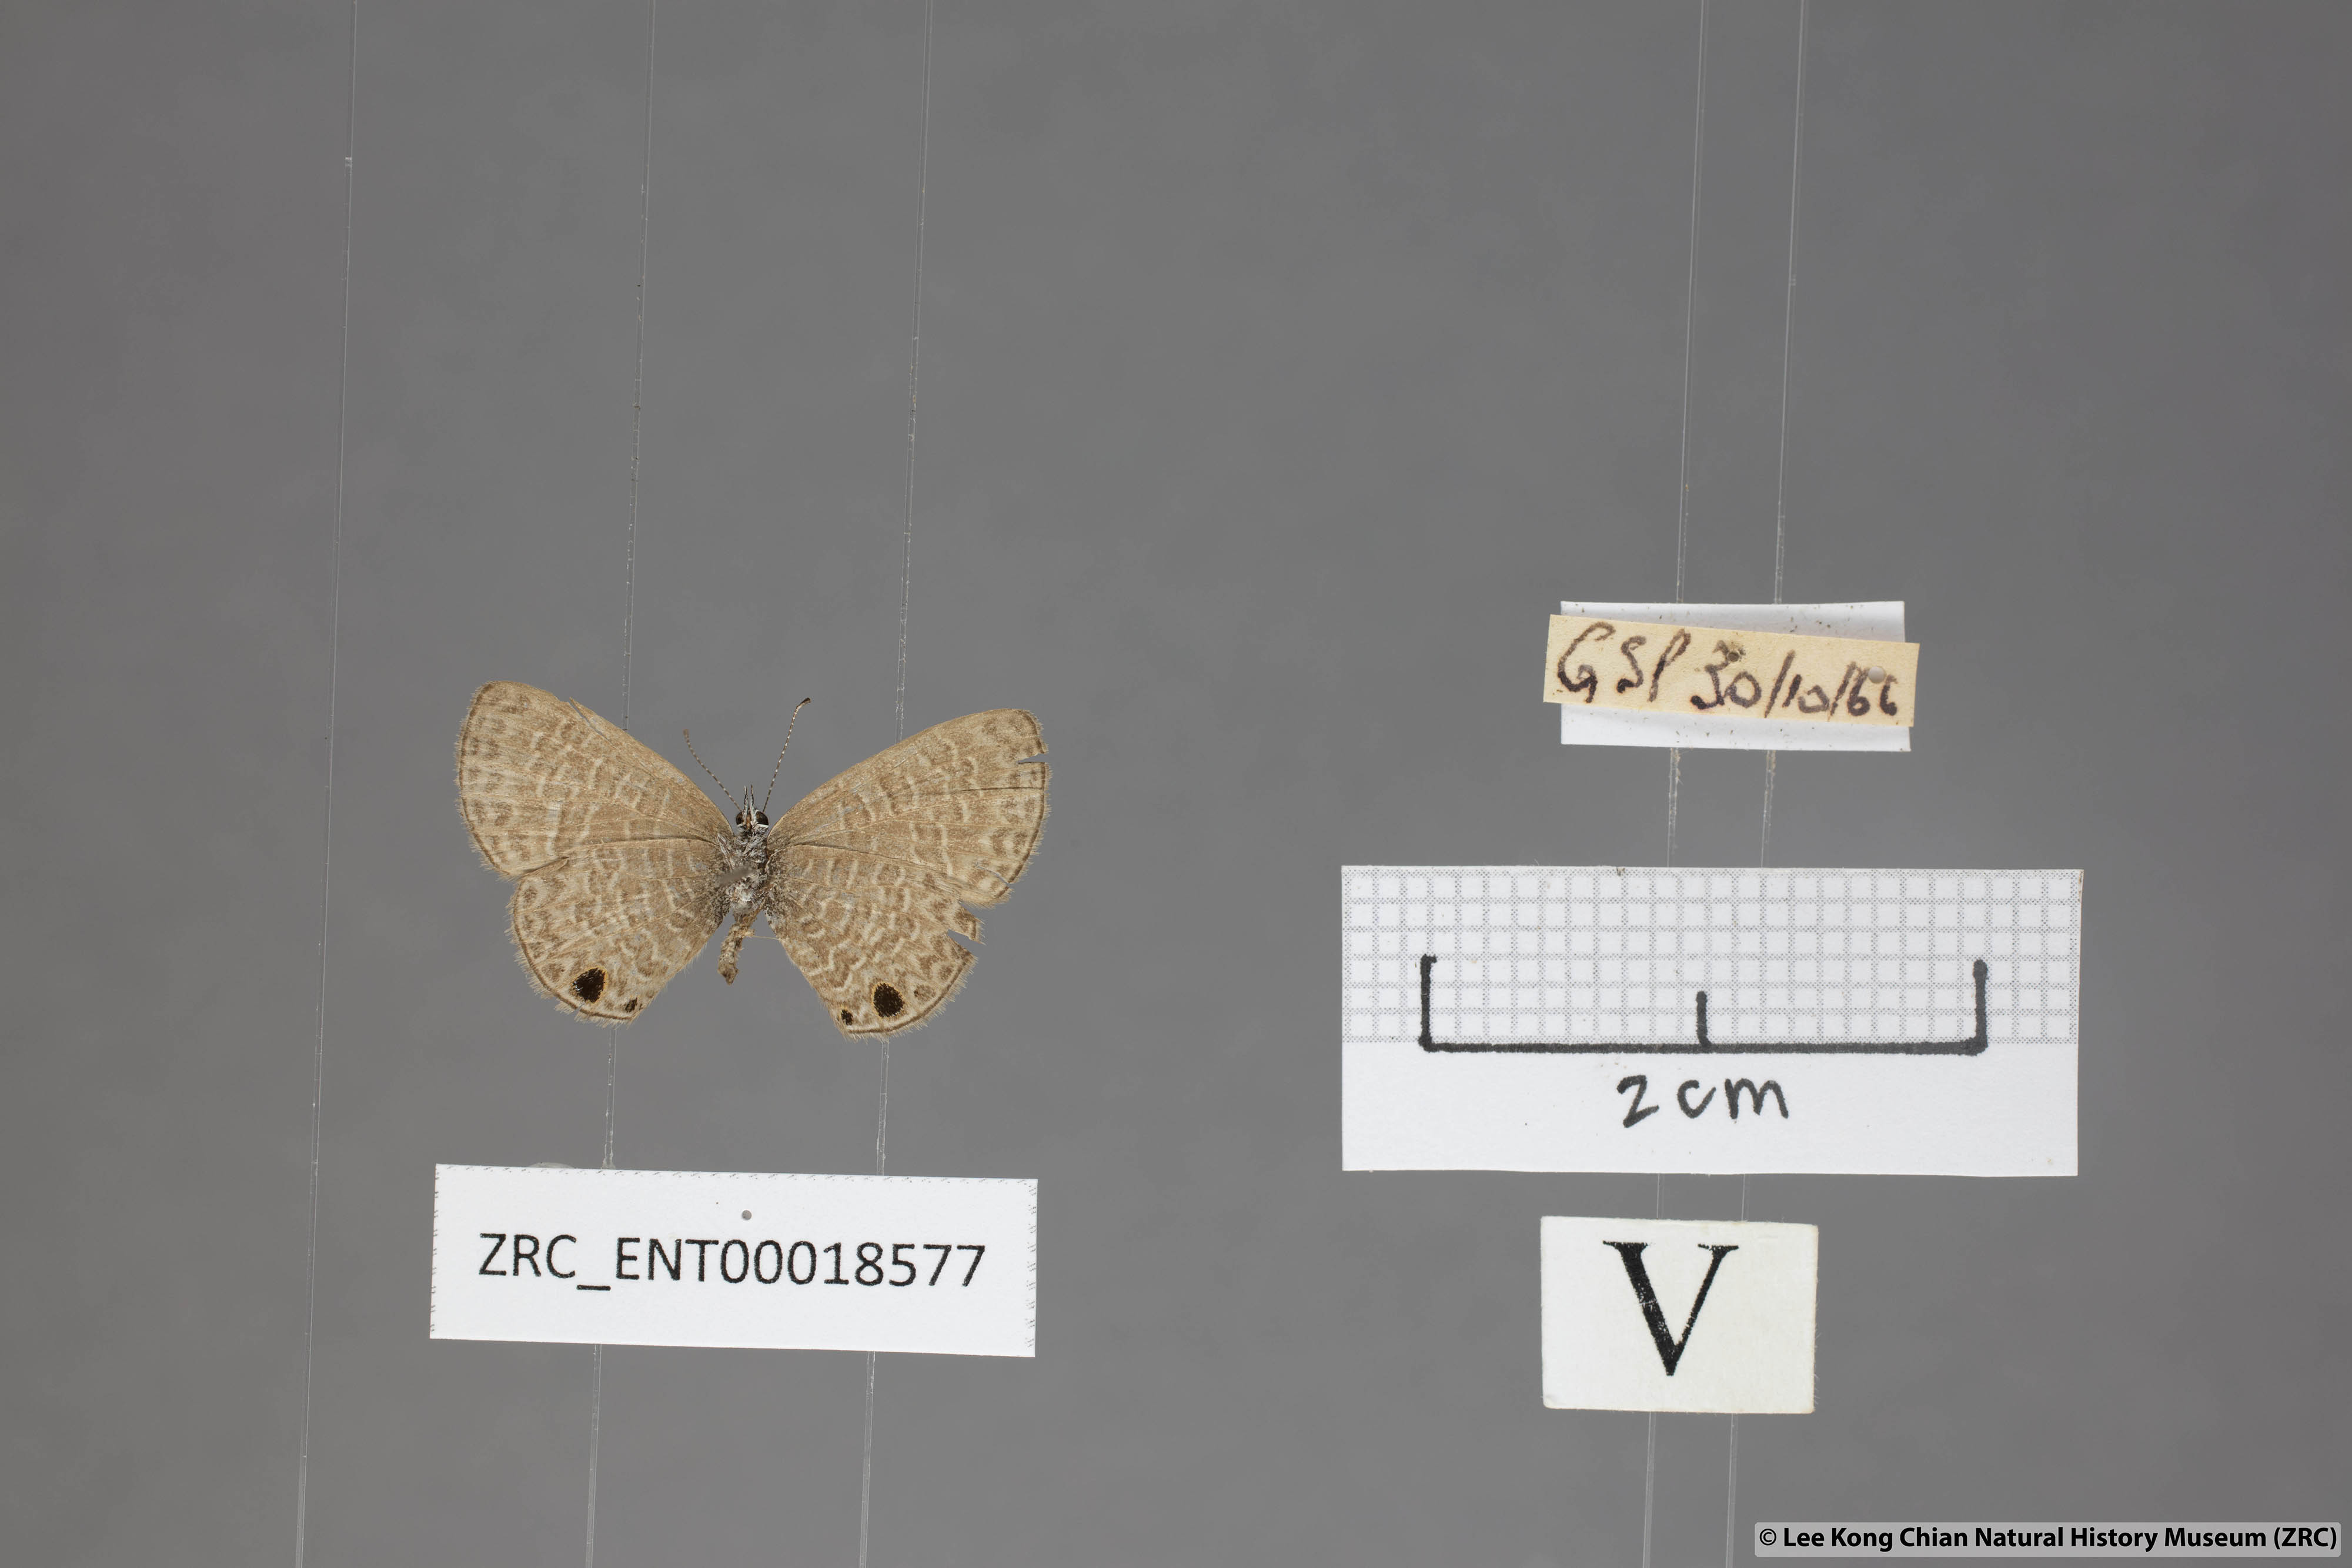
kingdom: Animalia
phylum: Arthropoda
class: Insecta
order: Lepidoptera
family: Lycaenidae
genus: Prosotas
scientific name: Prosotas dubiosa
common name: Tailless lineblue
